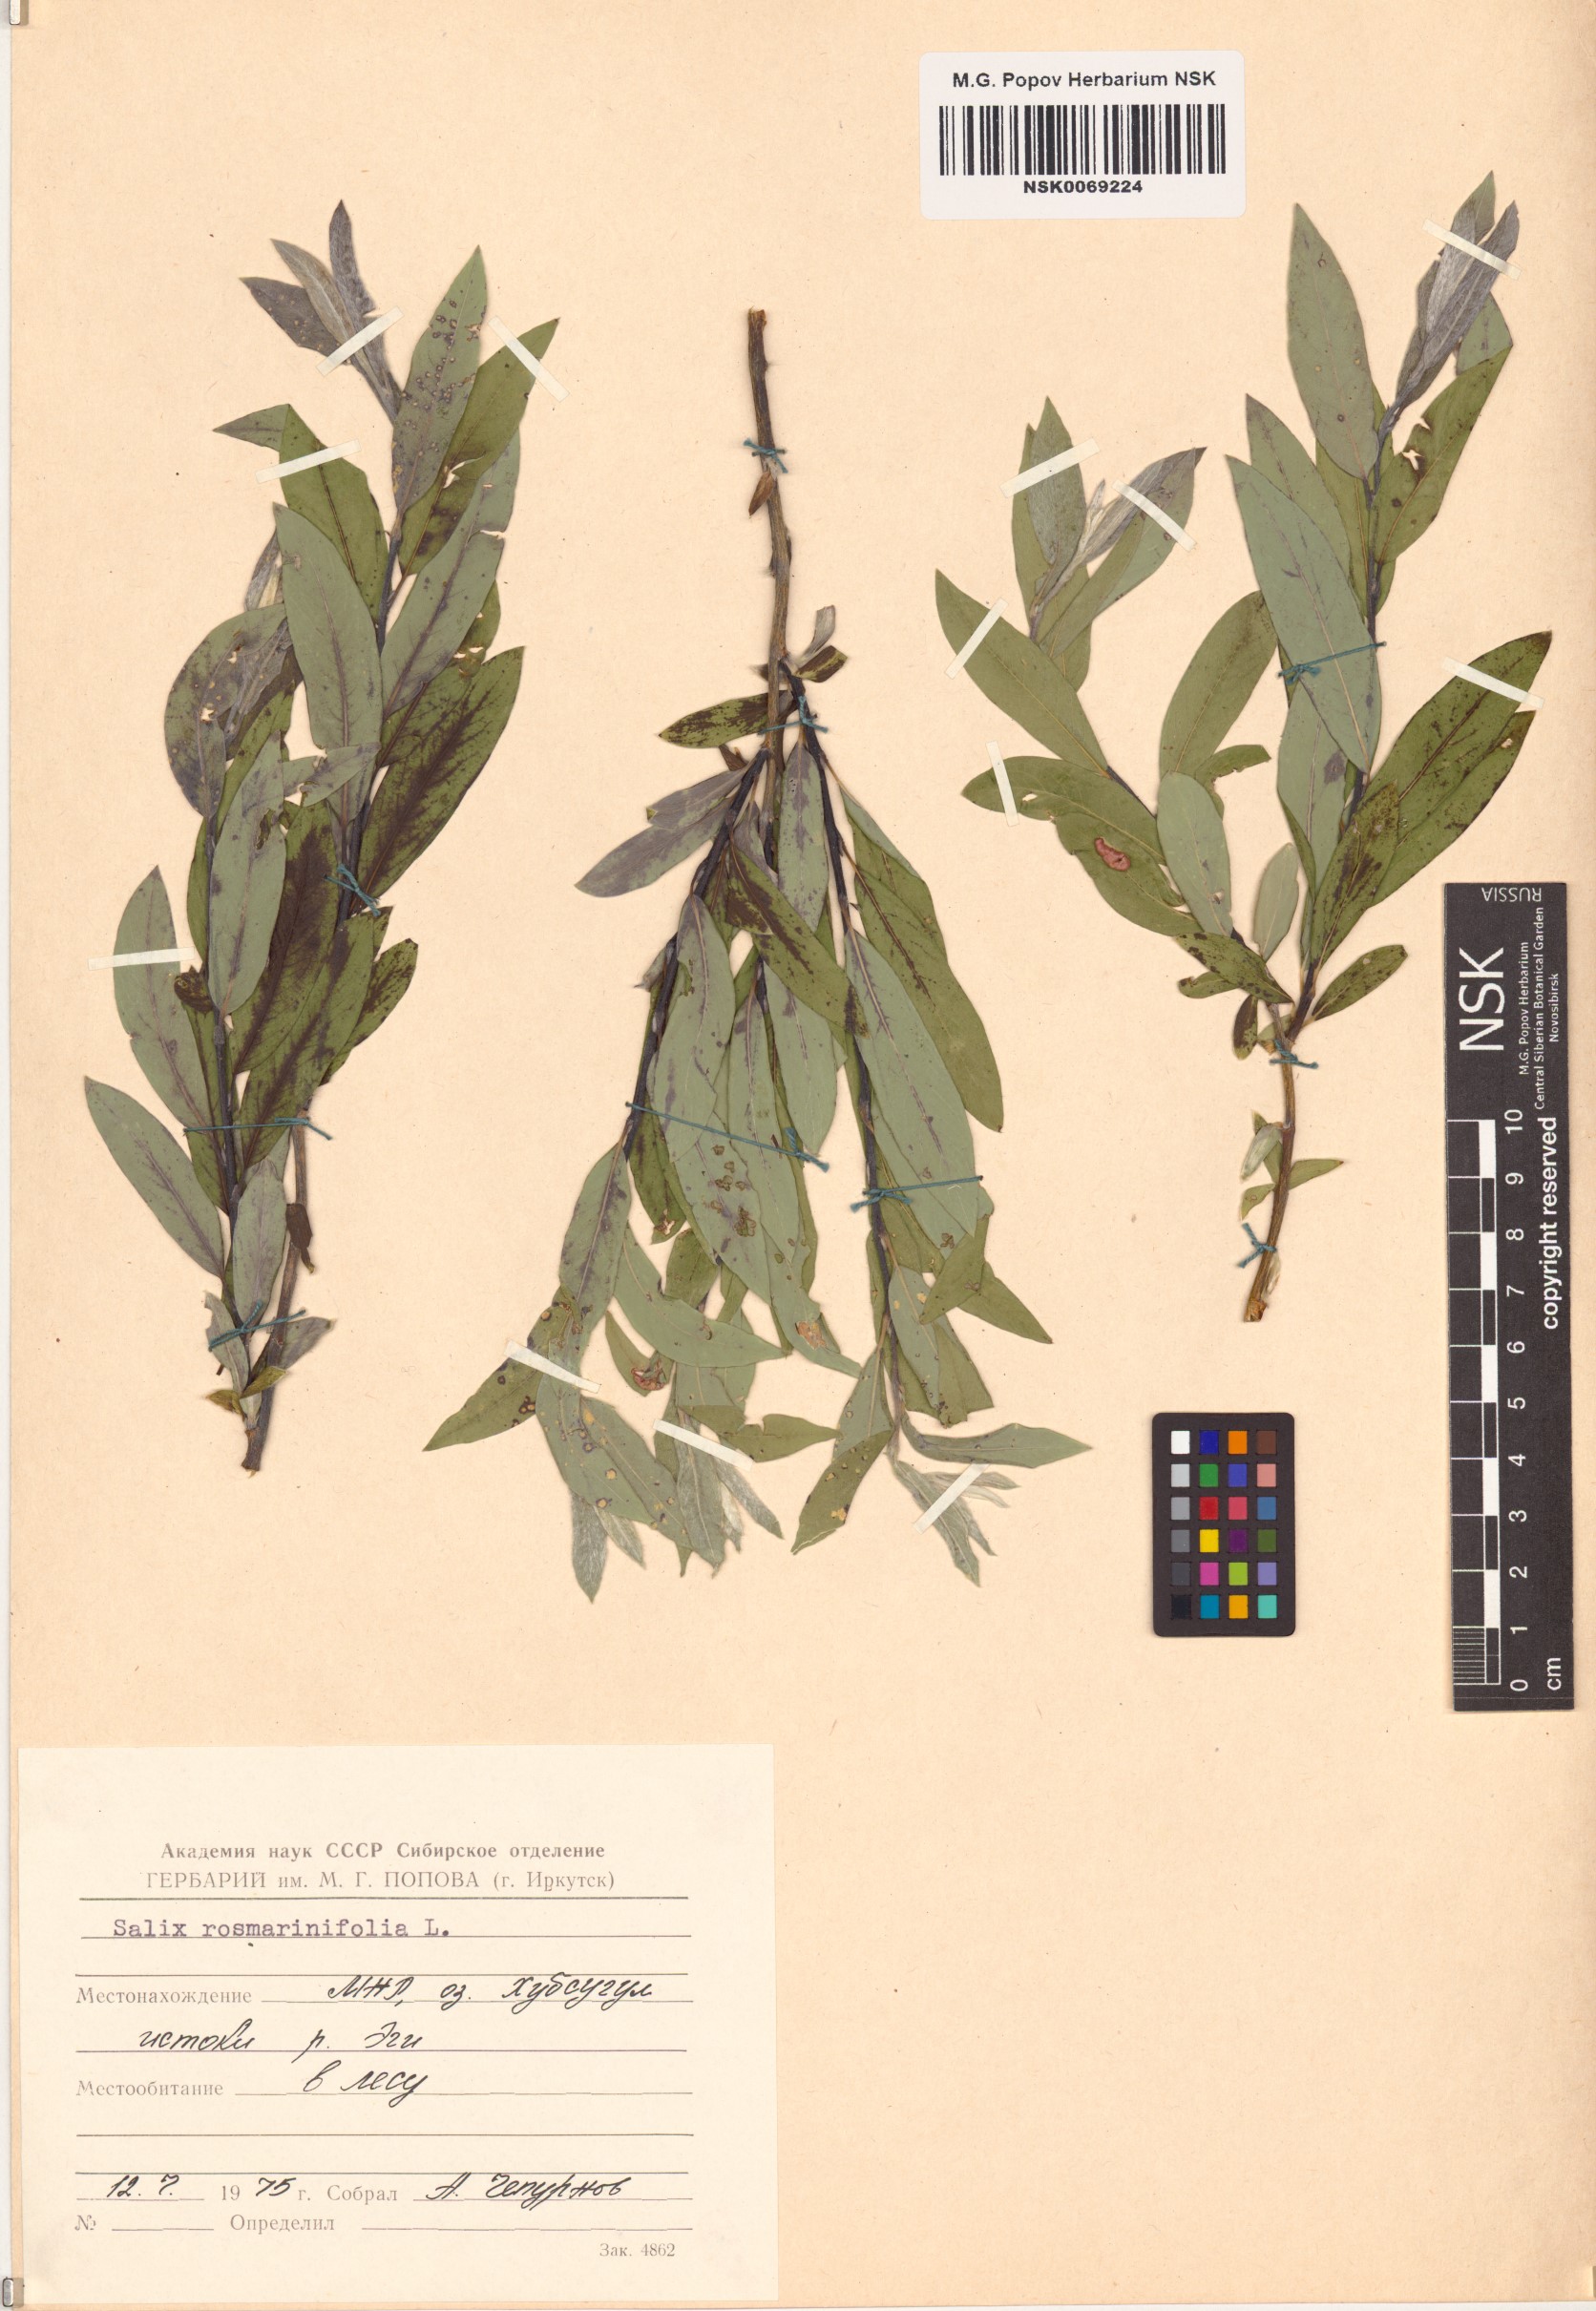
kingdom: Plantae
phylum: Tracheophyta
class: Magnoliopsida
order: Malpighiales
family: Salicaceae
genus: Salix
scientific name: Salix rosmarinifolia
